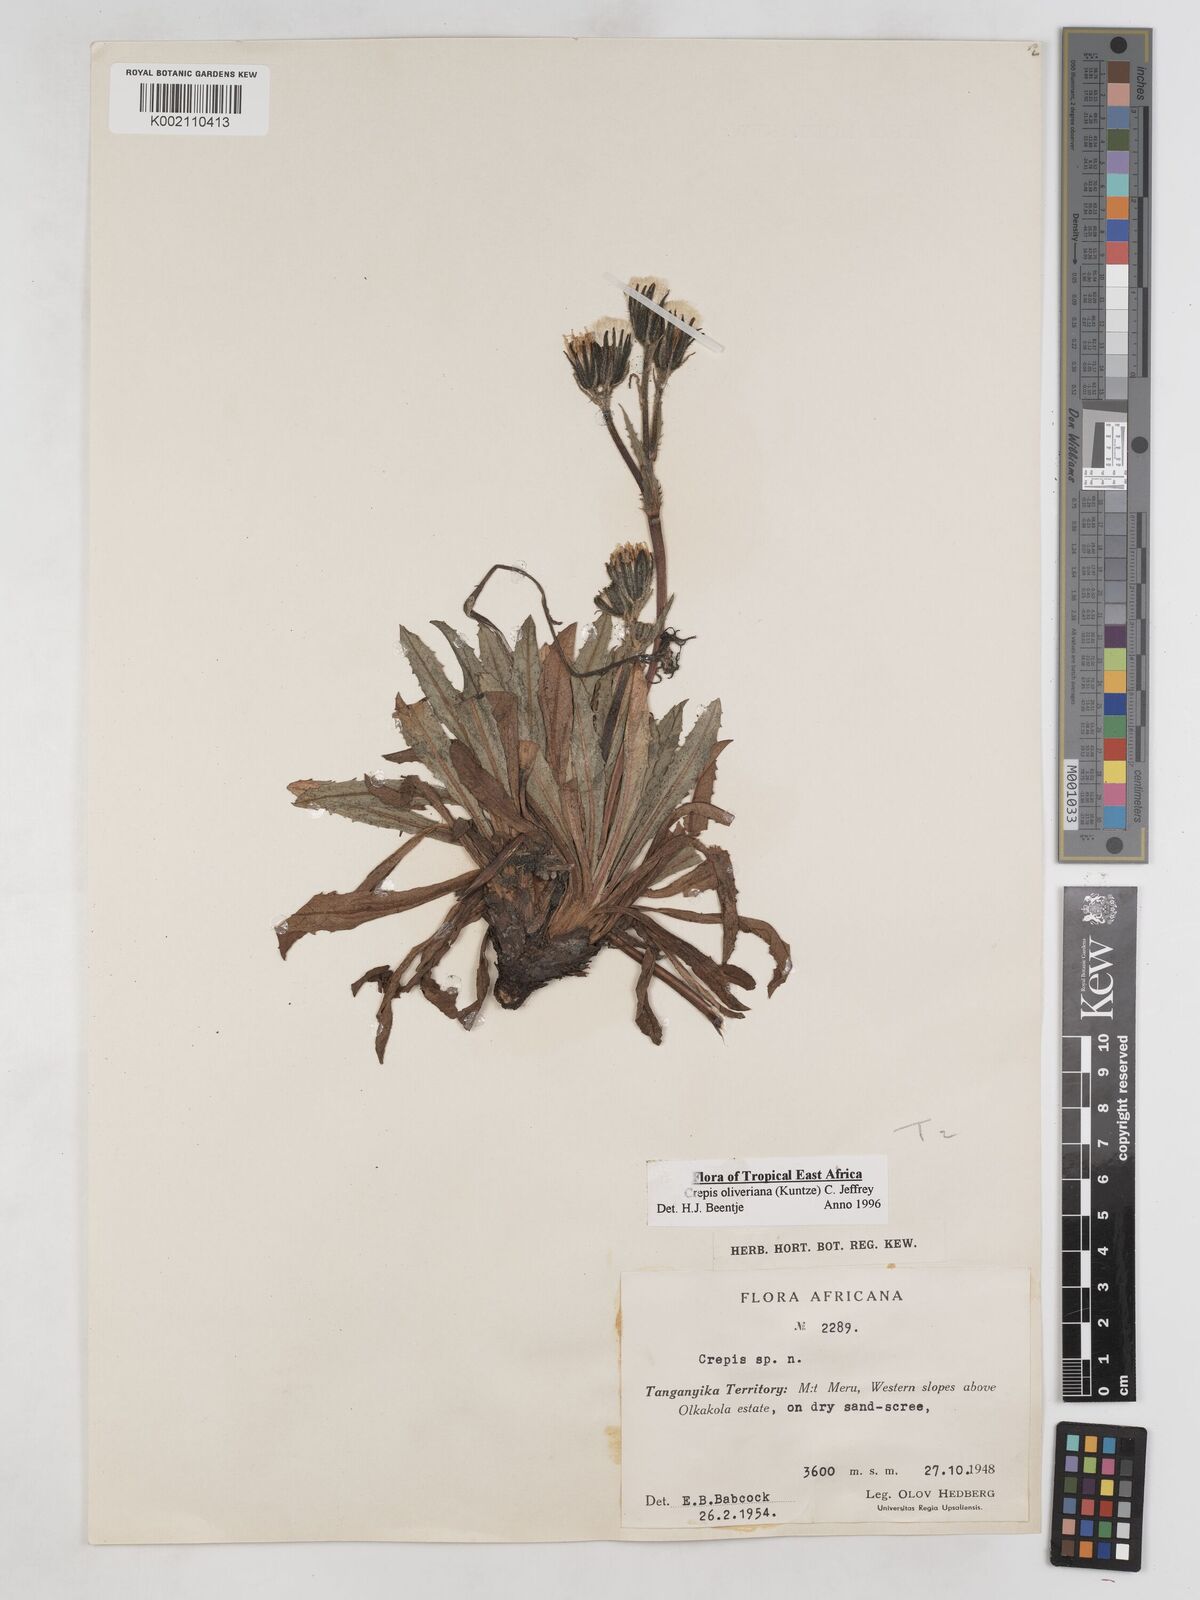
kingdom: Plantae
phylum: Tracheophyta
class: Magnoliopsida
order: Asterales
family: Asteraceae
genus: Crepis
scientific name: Crepis hypochoeridea
